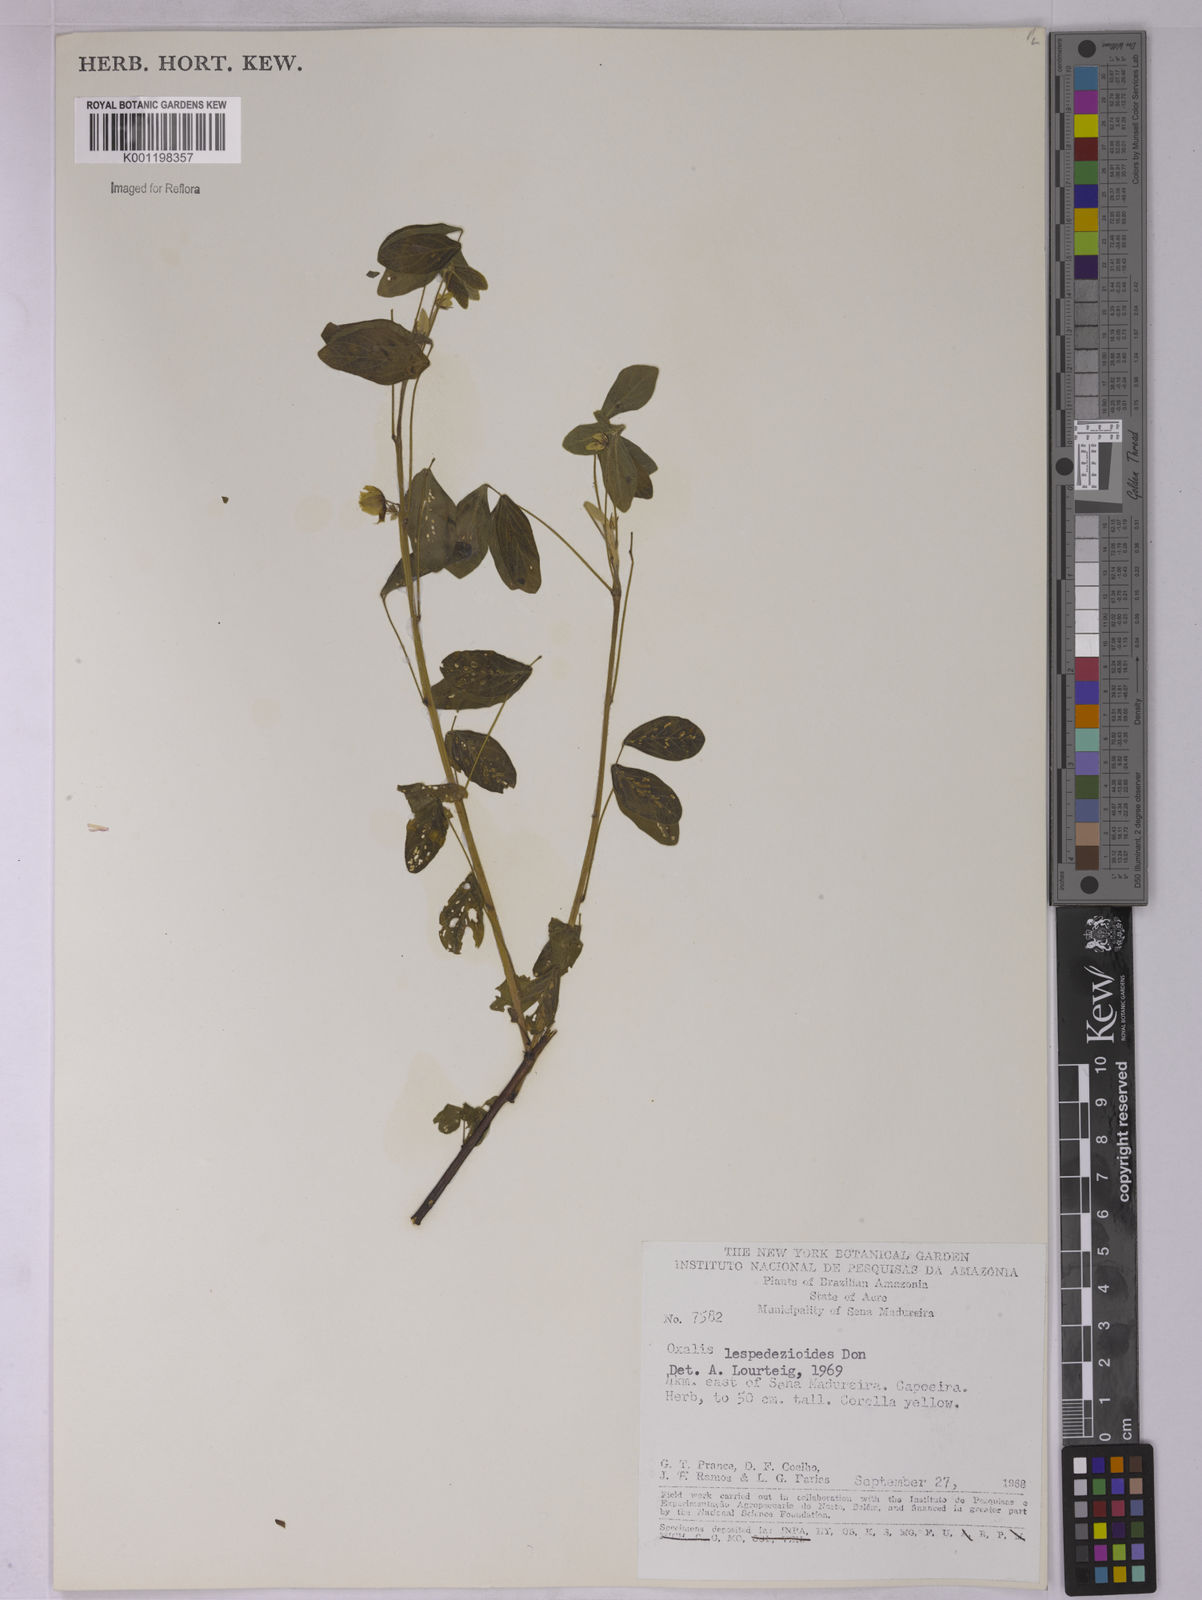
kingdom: Plantae
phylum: Tracheophyta
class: Magnoliopsida
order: Oxalidales
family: Oxalidaceae
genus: Oxalis
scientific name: Oxalis lespedezioides
